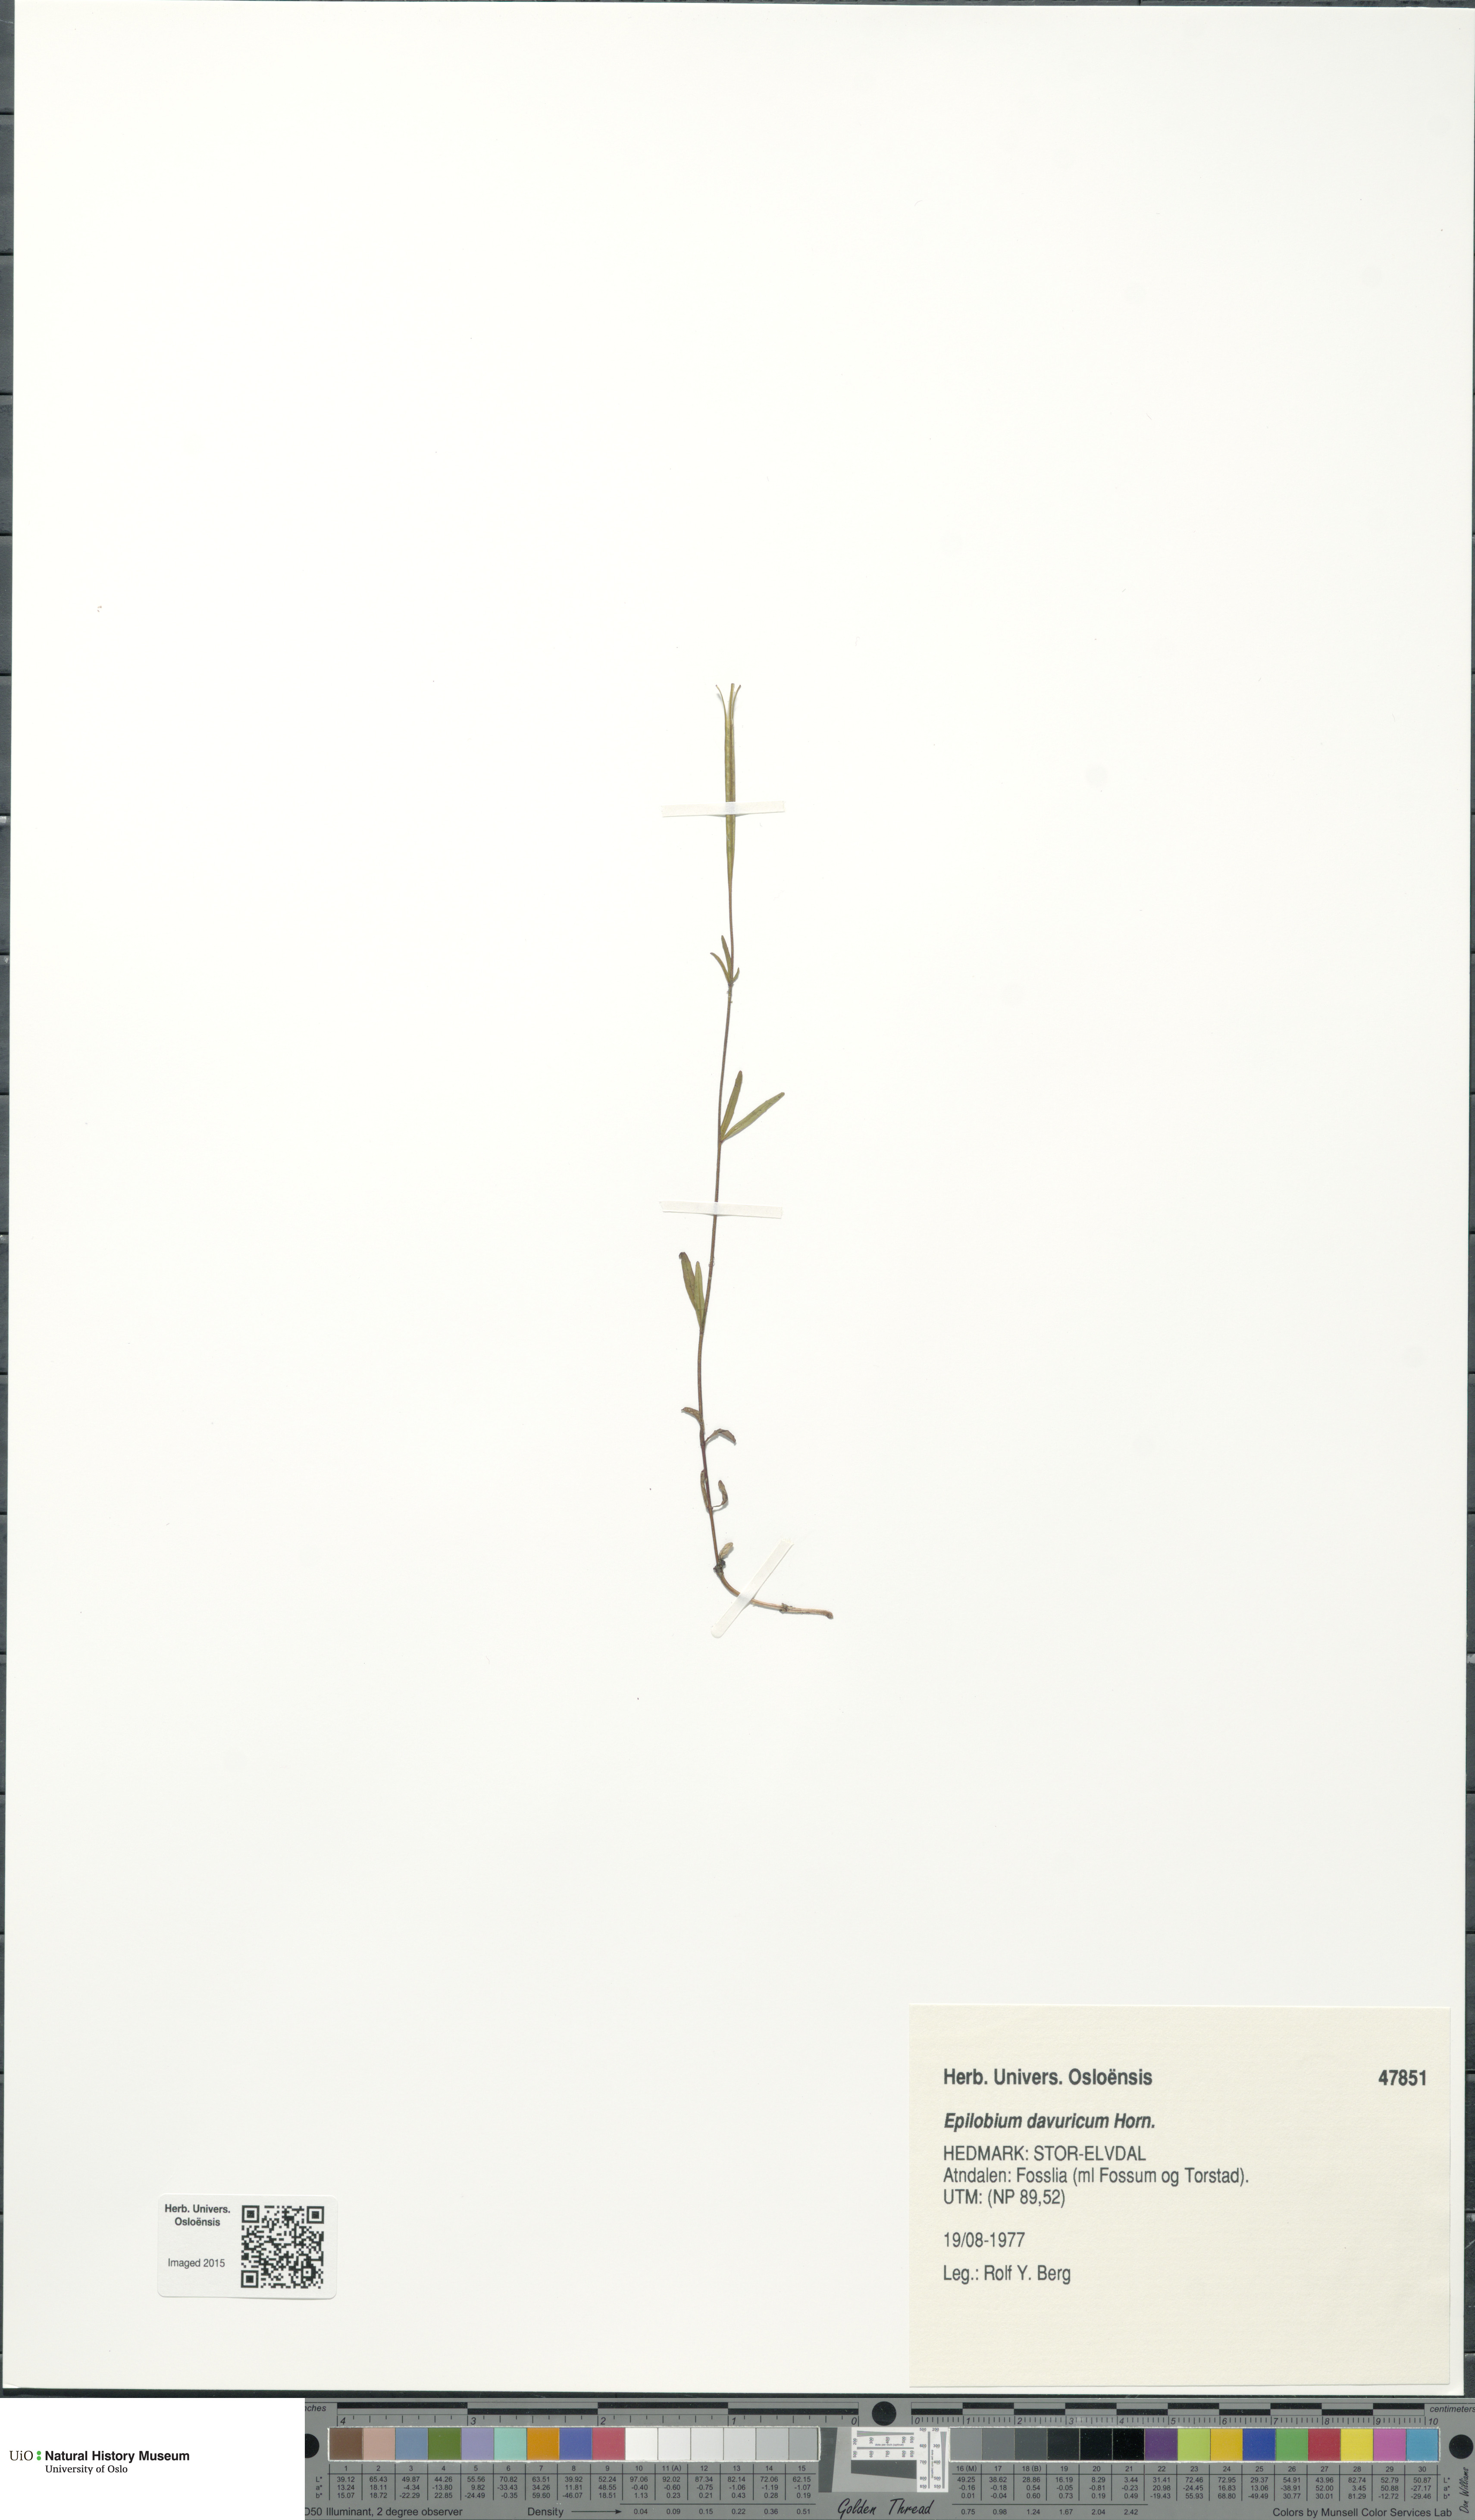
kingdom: Plantae
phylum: Tracheophyta
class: Magnoliopsida
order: Myrtales
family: Onagraceae
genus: Epilobium
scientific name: Epilobium davuricum
